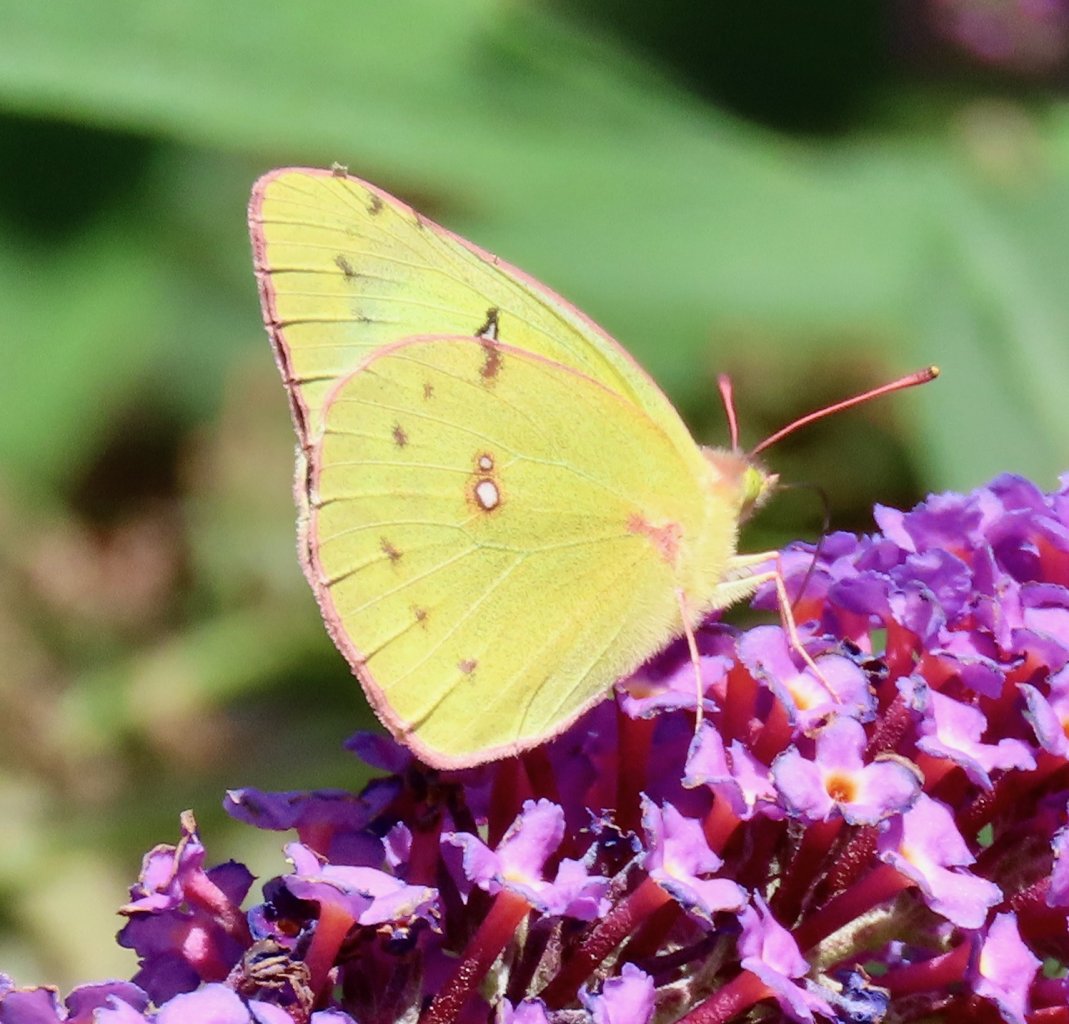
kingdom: Animalia
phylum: Arthropoda
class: Insecta
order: Lepidoptera
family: Pieridae
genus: Colias
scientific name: Colias philodice
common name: Clouded Sulphur
